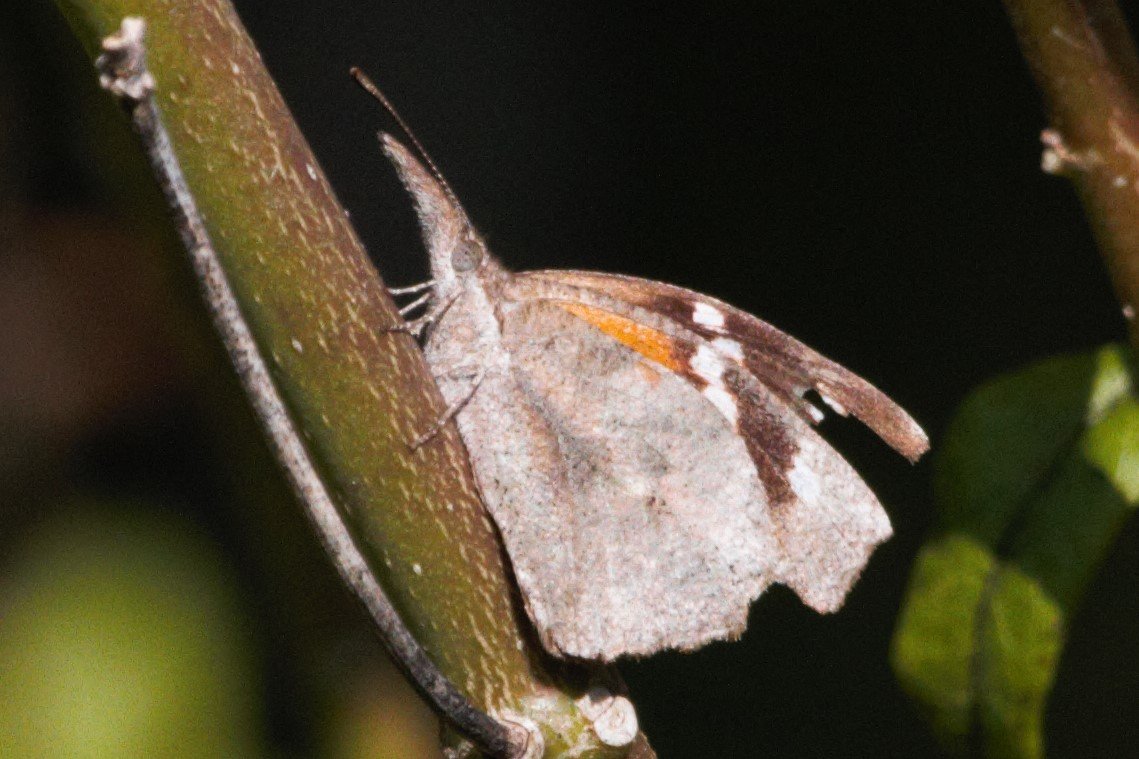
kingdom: Animalia
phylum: Arthropoda
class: Insecta
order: Lepidoptera
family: Nymphalidae
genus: Libytheana
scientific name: Libytheana carinenta
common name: American Snout
